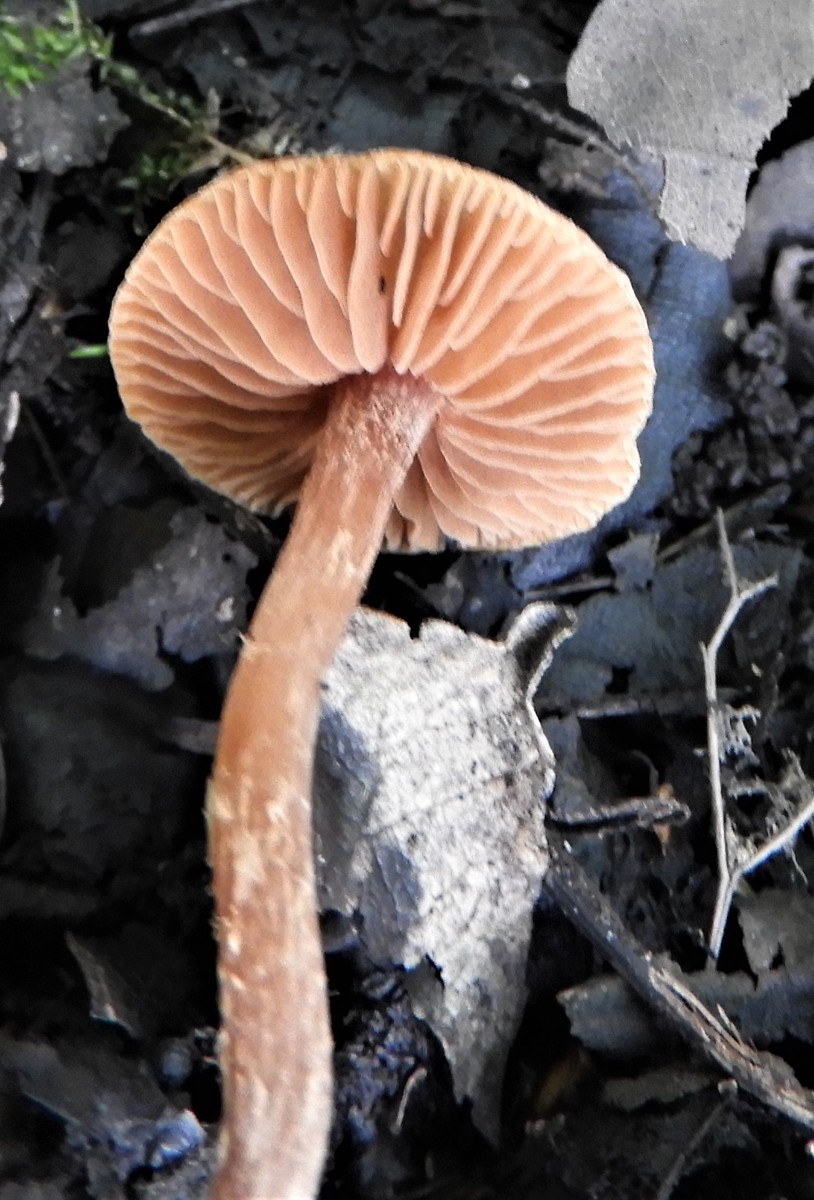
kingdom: Fungi
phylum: Basidiomycota
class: Agaricomycetes
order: Agaricales
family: Hymenogastraceae
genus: Naucoria
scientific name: Naucoria
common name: knaphat
